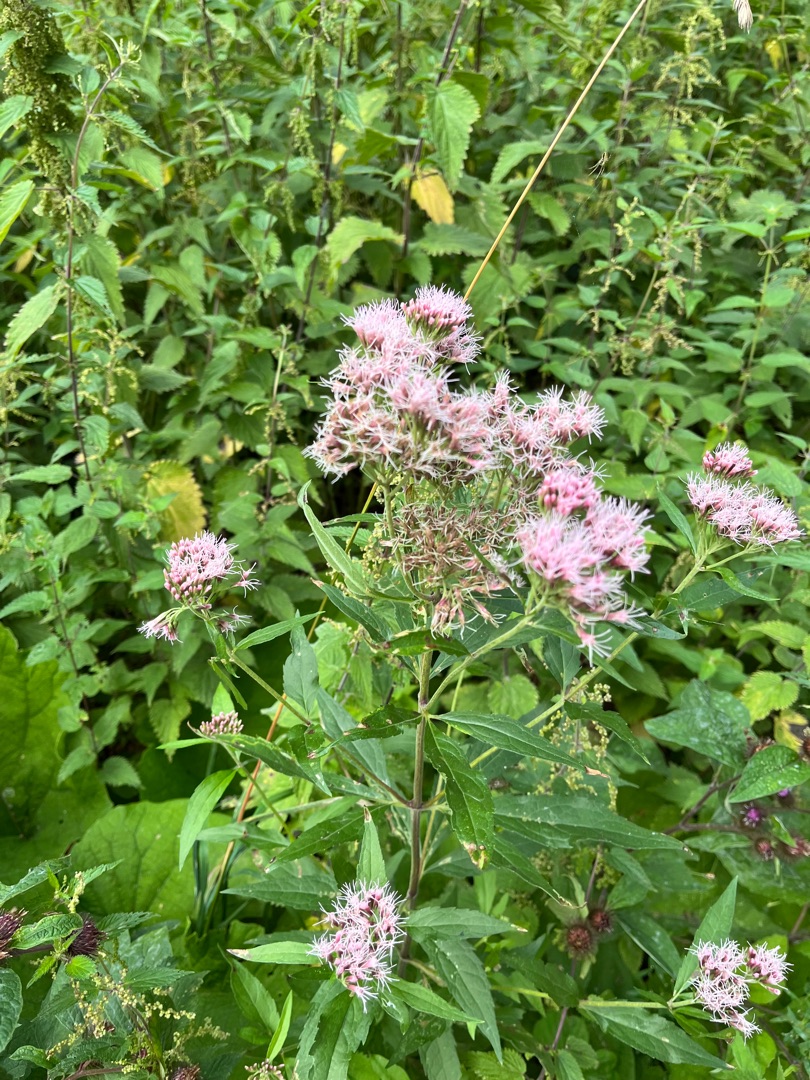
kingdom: Plantae
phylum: Tracheophyta
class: Magnoliopsida
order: Asterales
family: Asteraceae
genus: Eupatorium
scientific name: Eupatorium cannabinum
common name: Hjortetrøst
